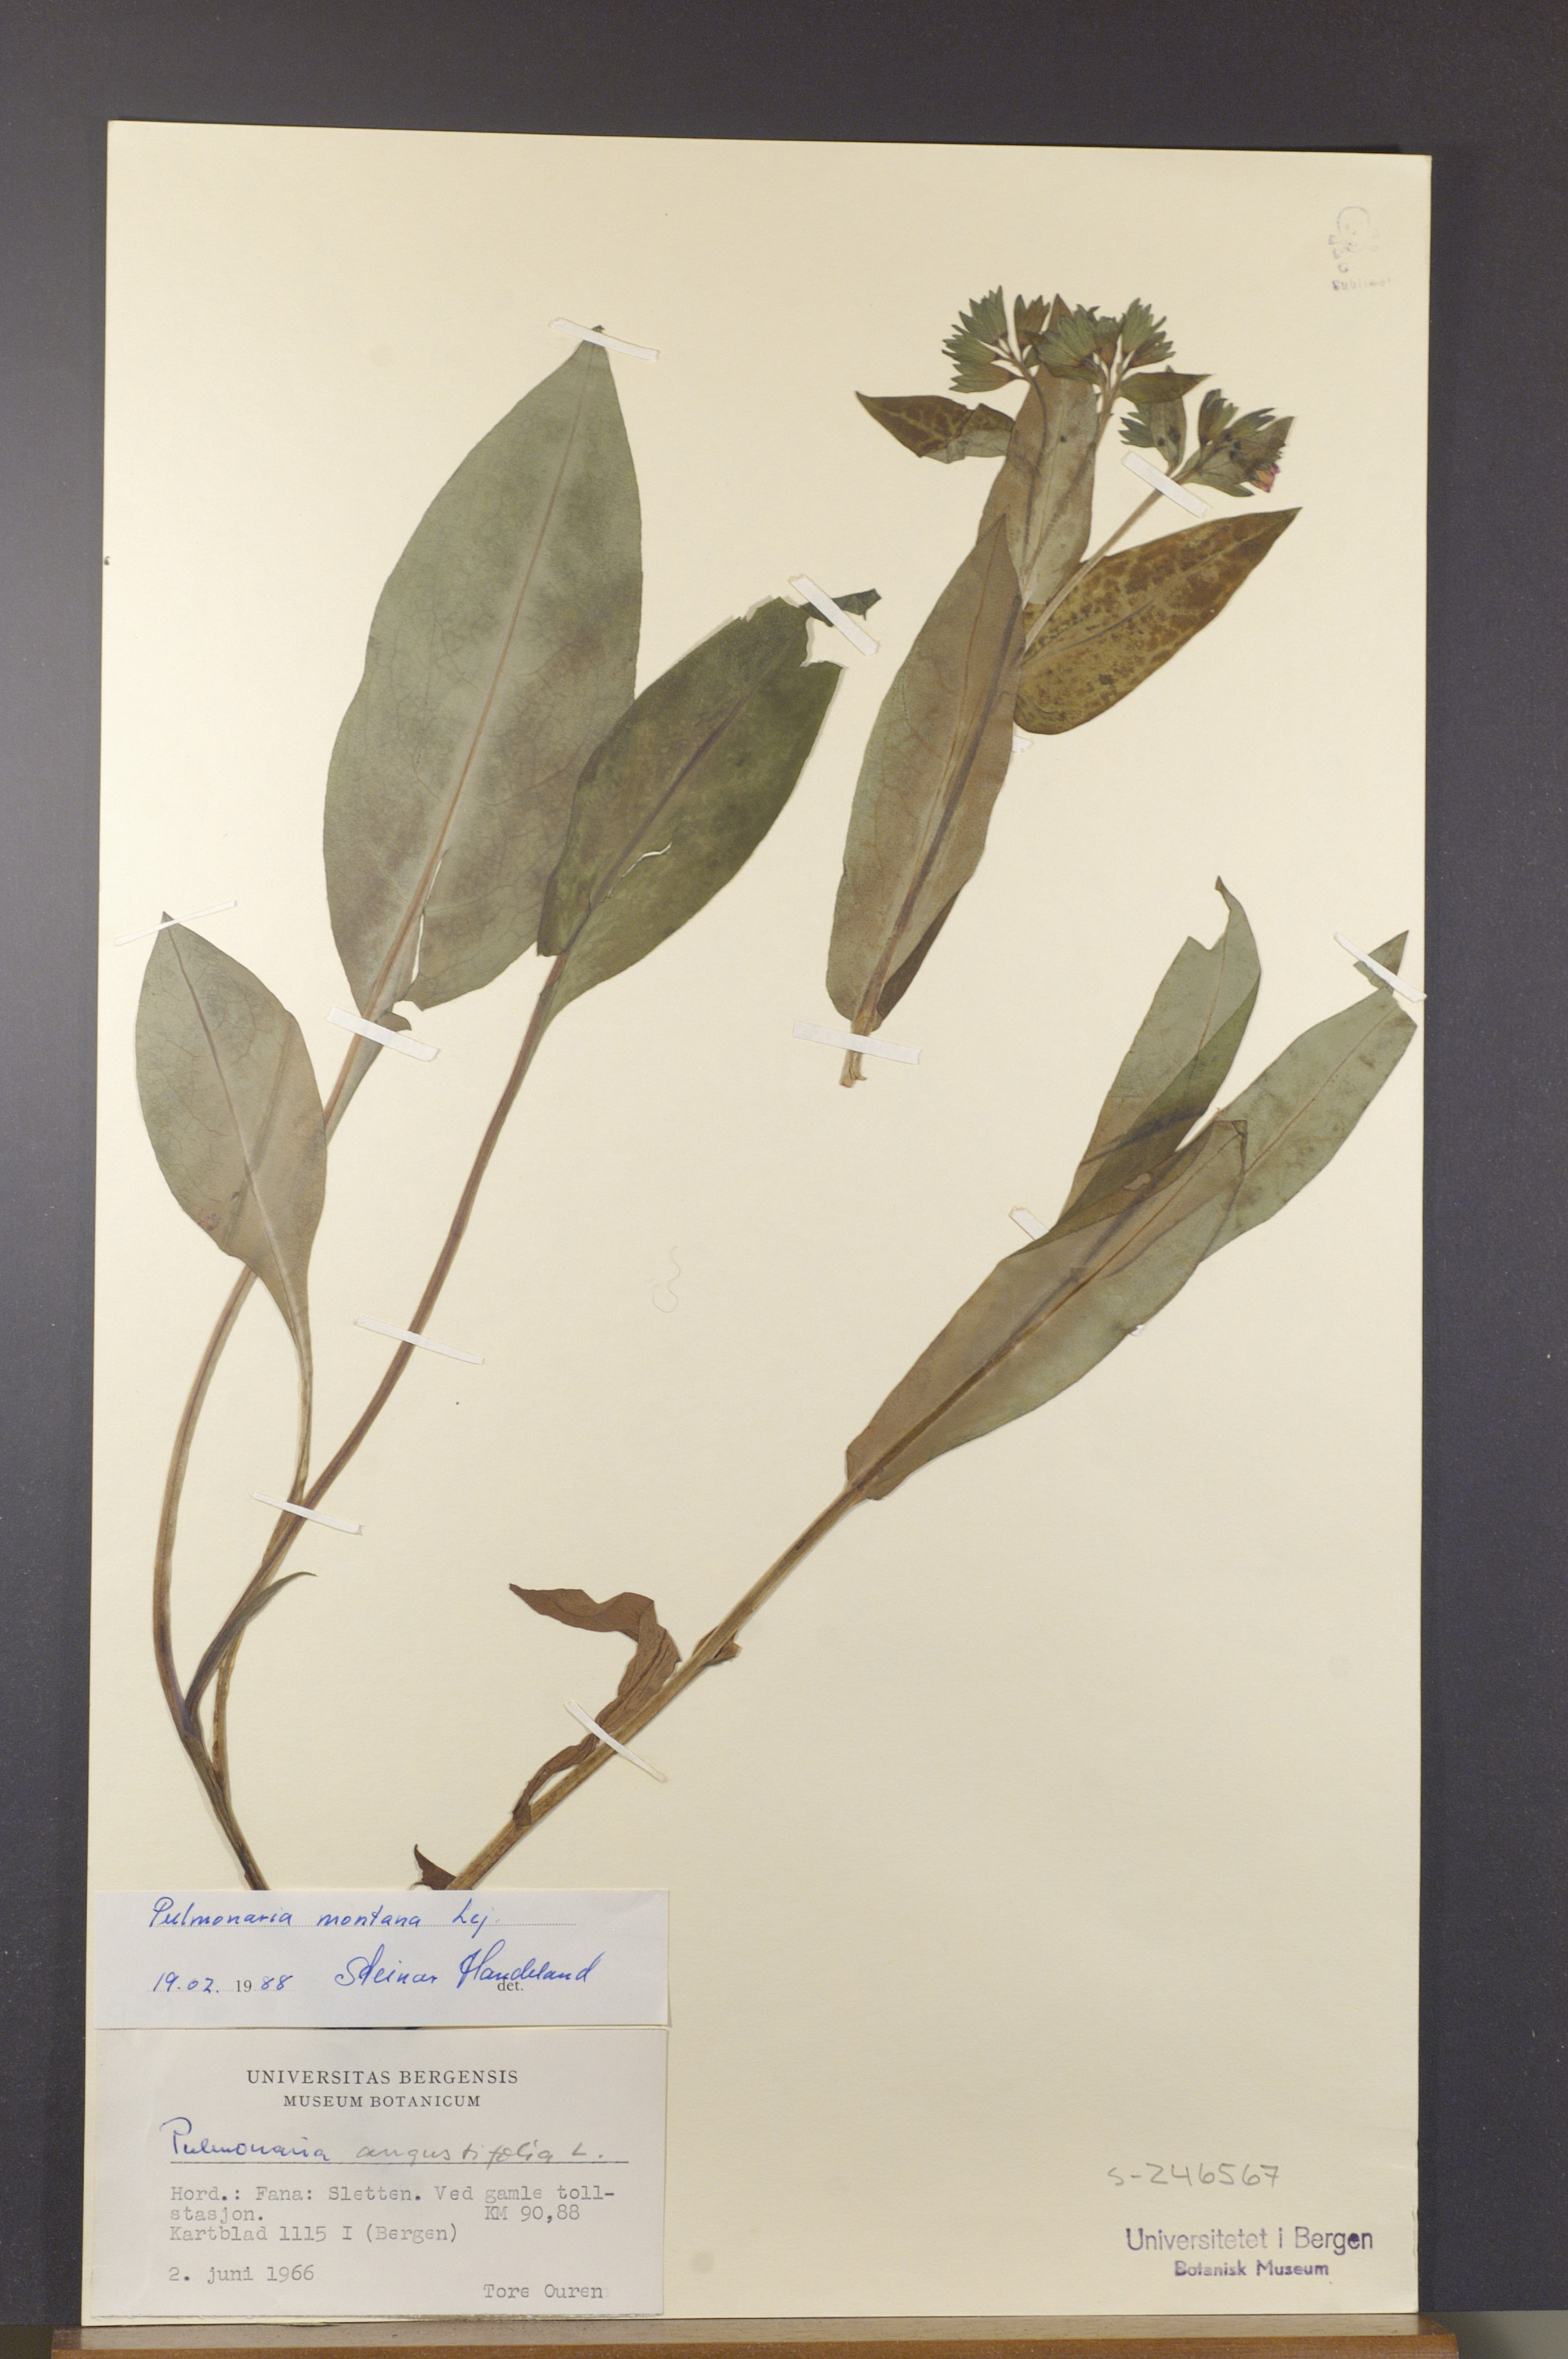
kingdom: Plantae
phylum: Tracheophyta
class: Magnoliopsida
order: Boraginales
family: Boraginaceae
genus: Pulmonaria
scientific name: Pulmonaria montana
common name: Mountain lungwort
